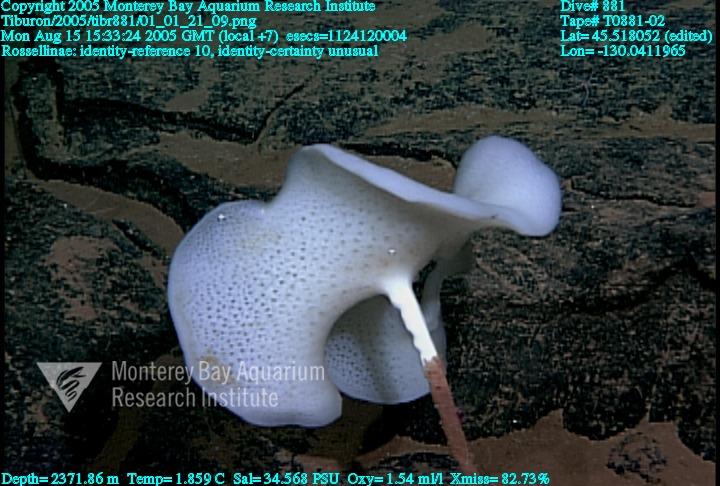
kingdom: Animalia
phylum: Porifera
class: Hexactinellida
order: Lyssacinosida
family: Rossellidae
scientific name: Rossellidae
